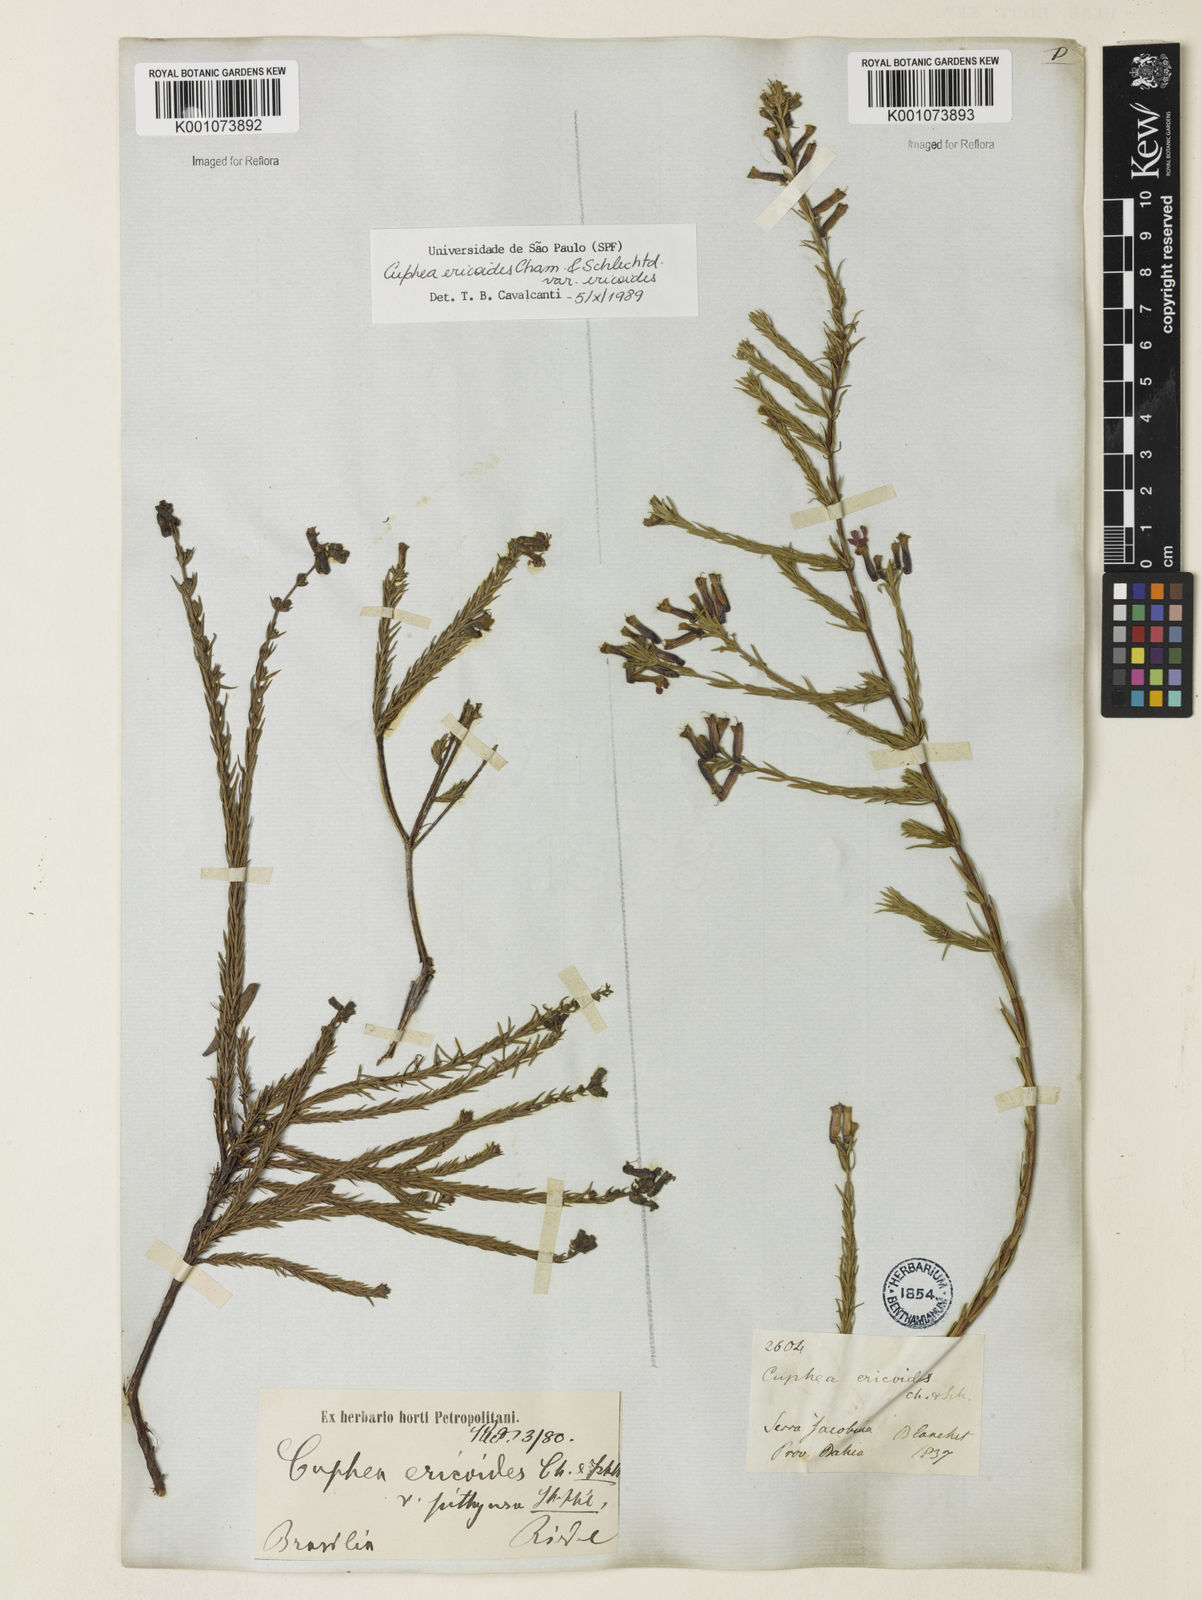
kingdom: Plantae
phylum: Tracheophyta
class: Magnoliopsida
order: Myrtales
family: Lythraceae
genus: Cuphea
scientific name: Cuphea ericoides
